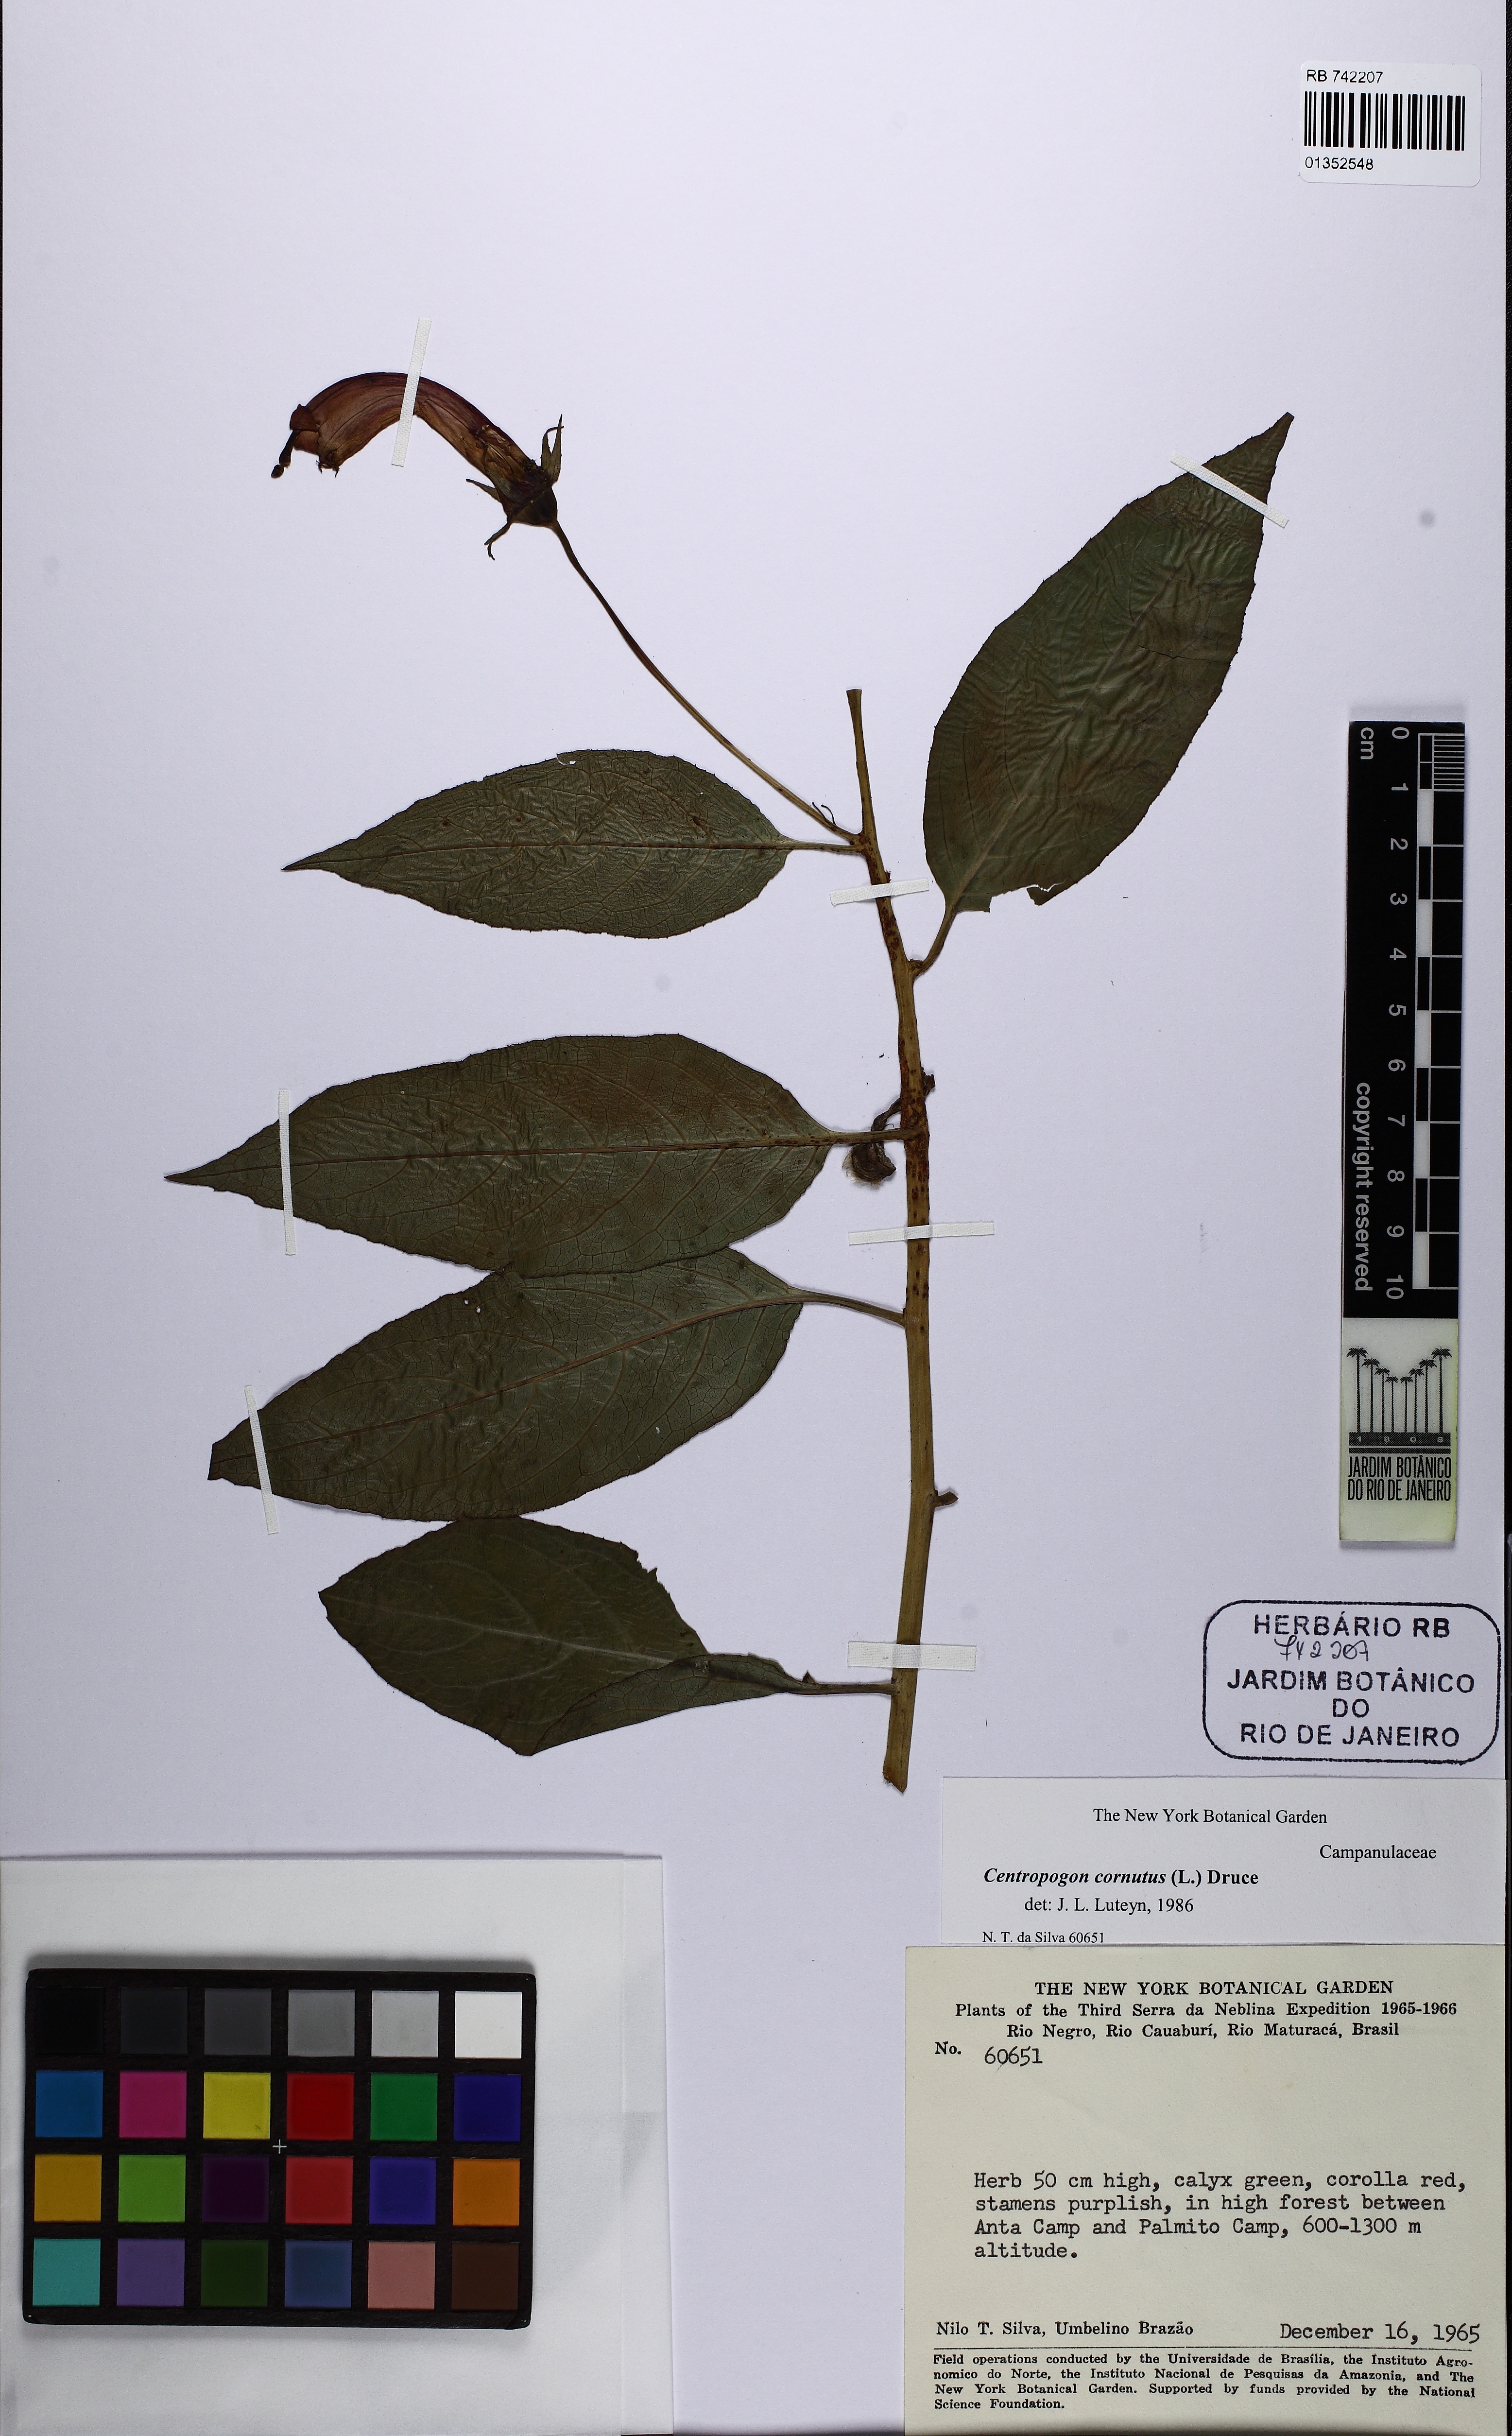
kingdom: Plantae
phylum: Tracheophyta
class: Magnoliopsida
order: Asterales
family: Campanulaceae
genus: Centropogon
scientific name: Centropogon cornutus
